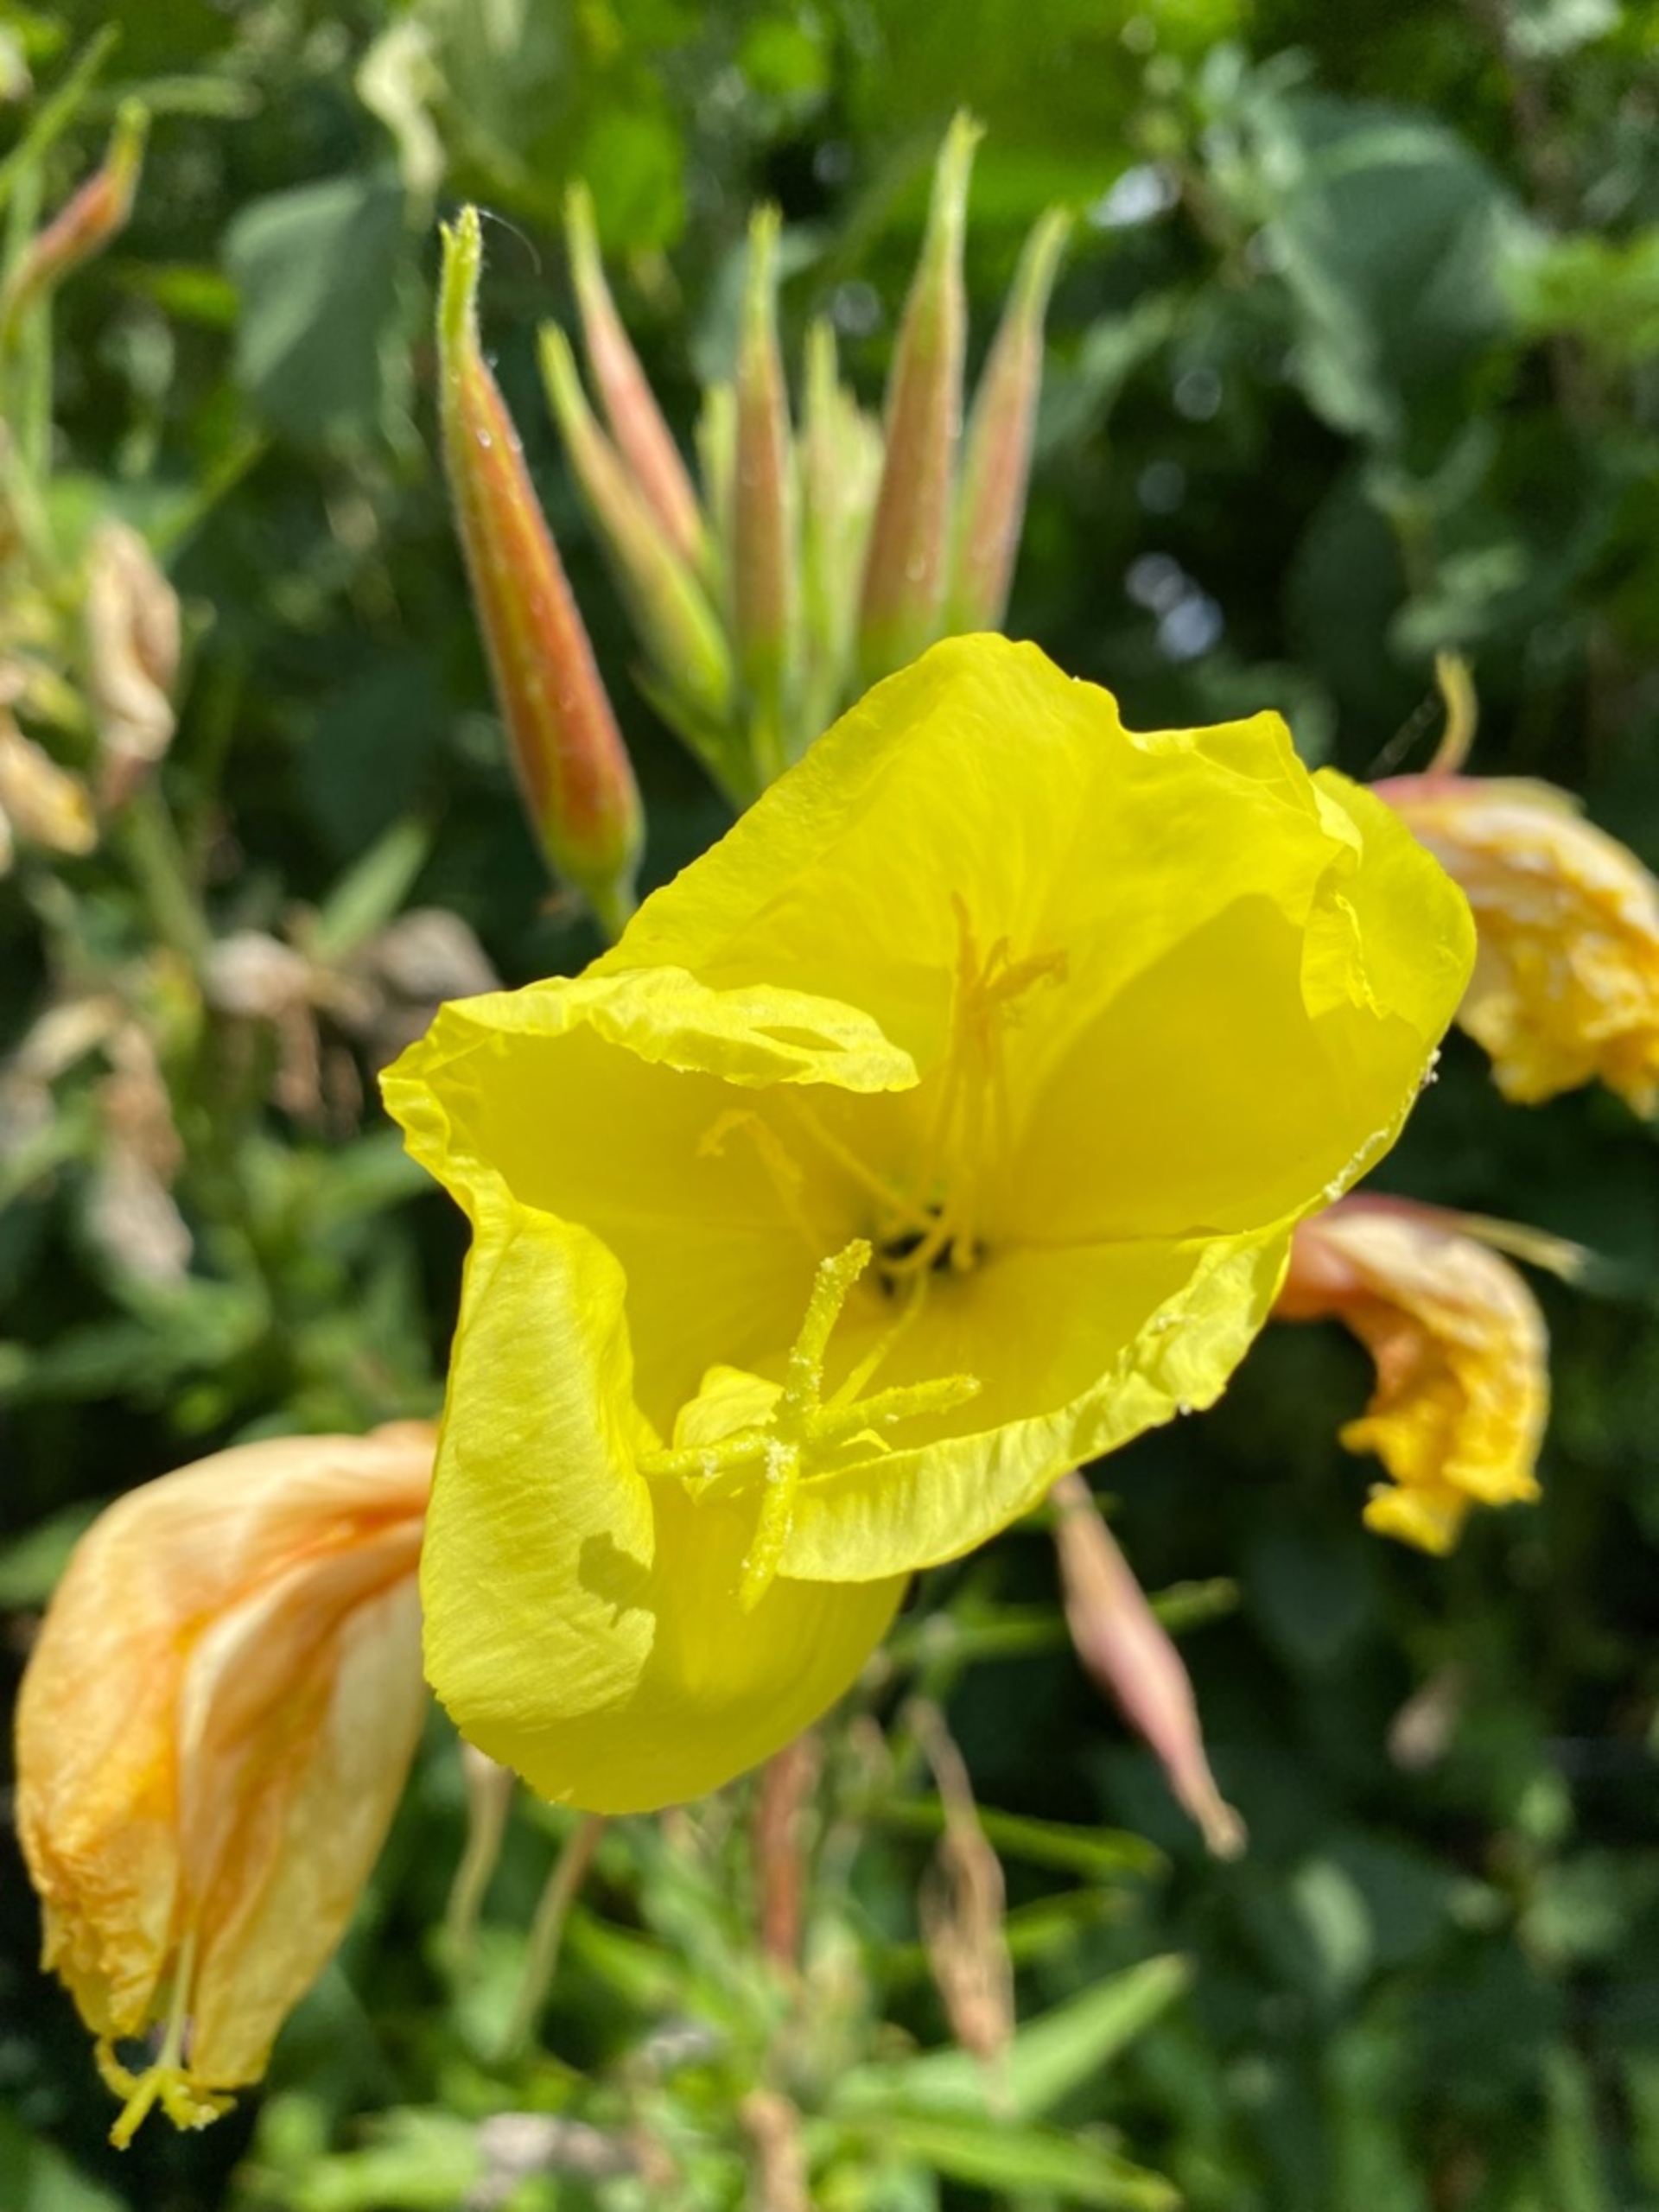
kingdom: Plantae
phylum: Tracheophyta
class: Magnoliopsida
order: Myrtales
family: Onagraceae
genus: Oenothera
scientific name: Oenothera glazioviana
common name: Kæmpe-natlys
